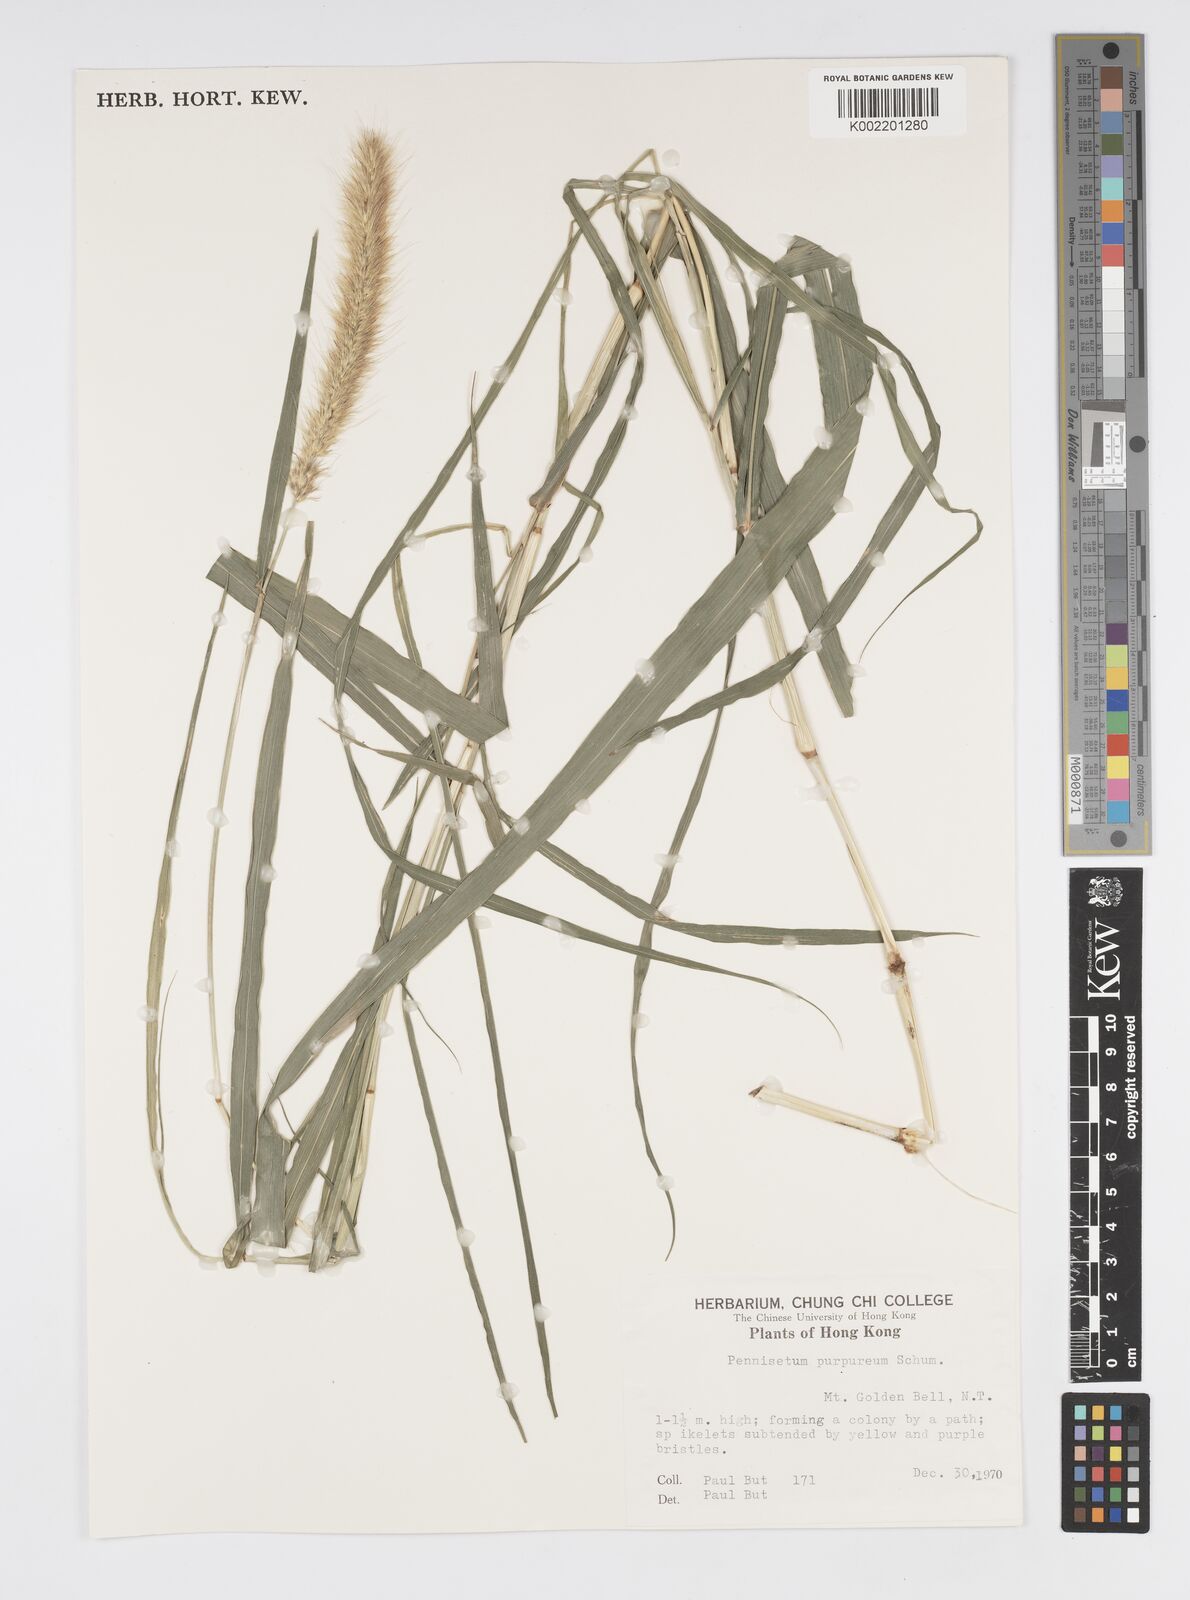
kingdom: Plantae
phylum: Tracheophyta
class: Liliopsida
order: Poales
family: Poaceae
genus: Cenchrus
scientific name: Cenchrus purpureus
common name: Elephant grass
